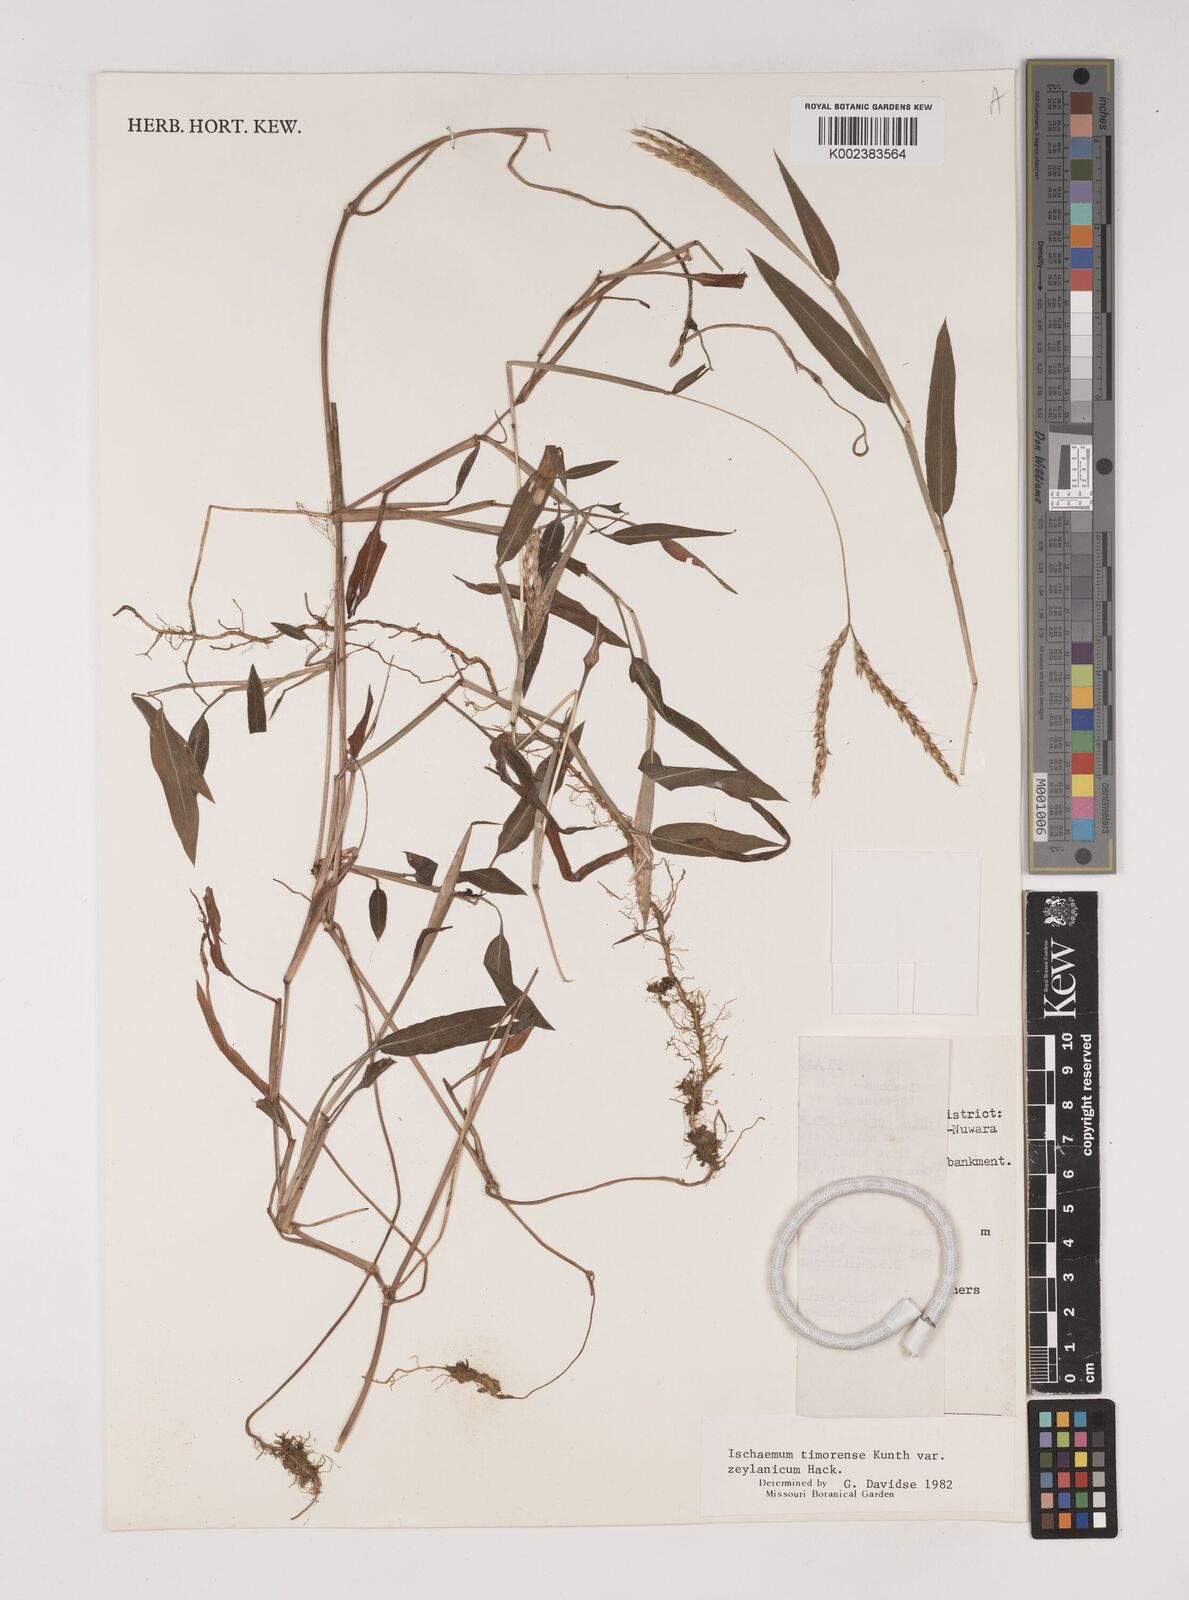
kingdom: Plantae
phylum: Tracheophyta
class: Liliopsida
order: Poales
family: Poaceae
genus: Ischaemum
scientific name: Ischaemum timorense
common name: Stalkleaf murainagrass
